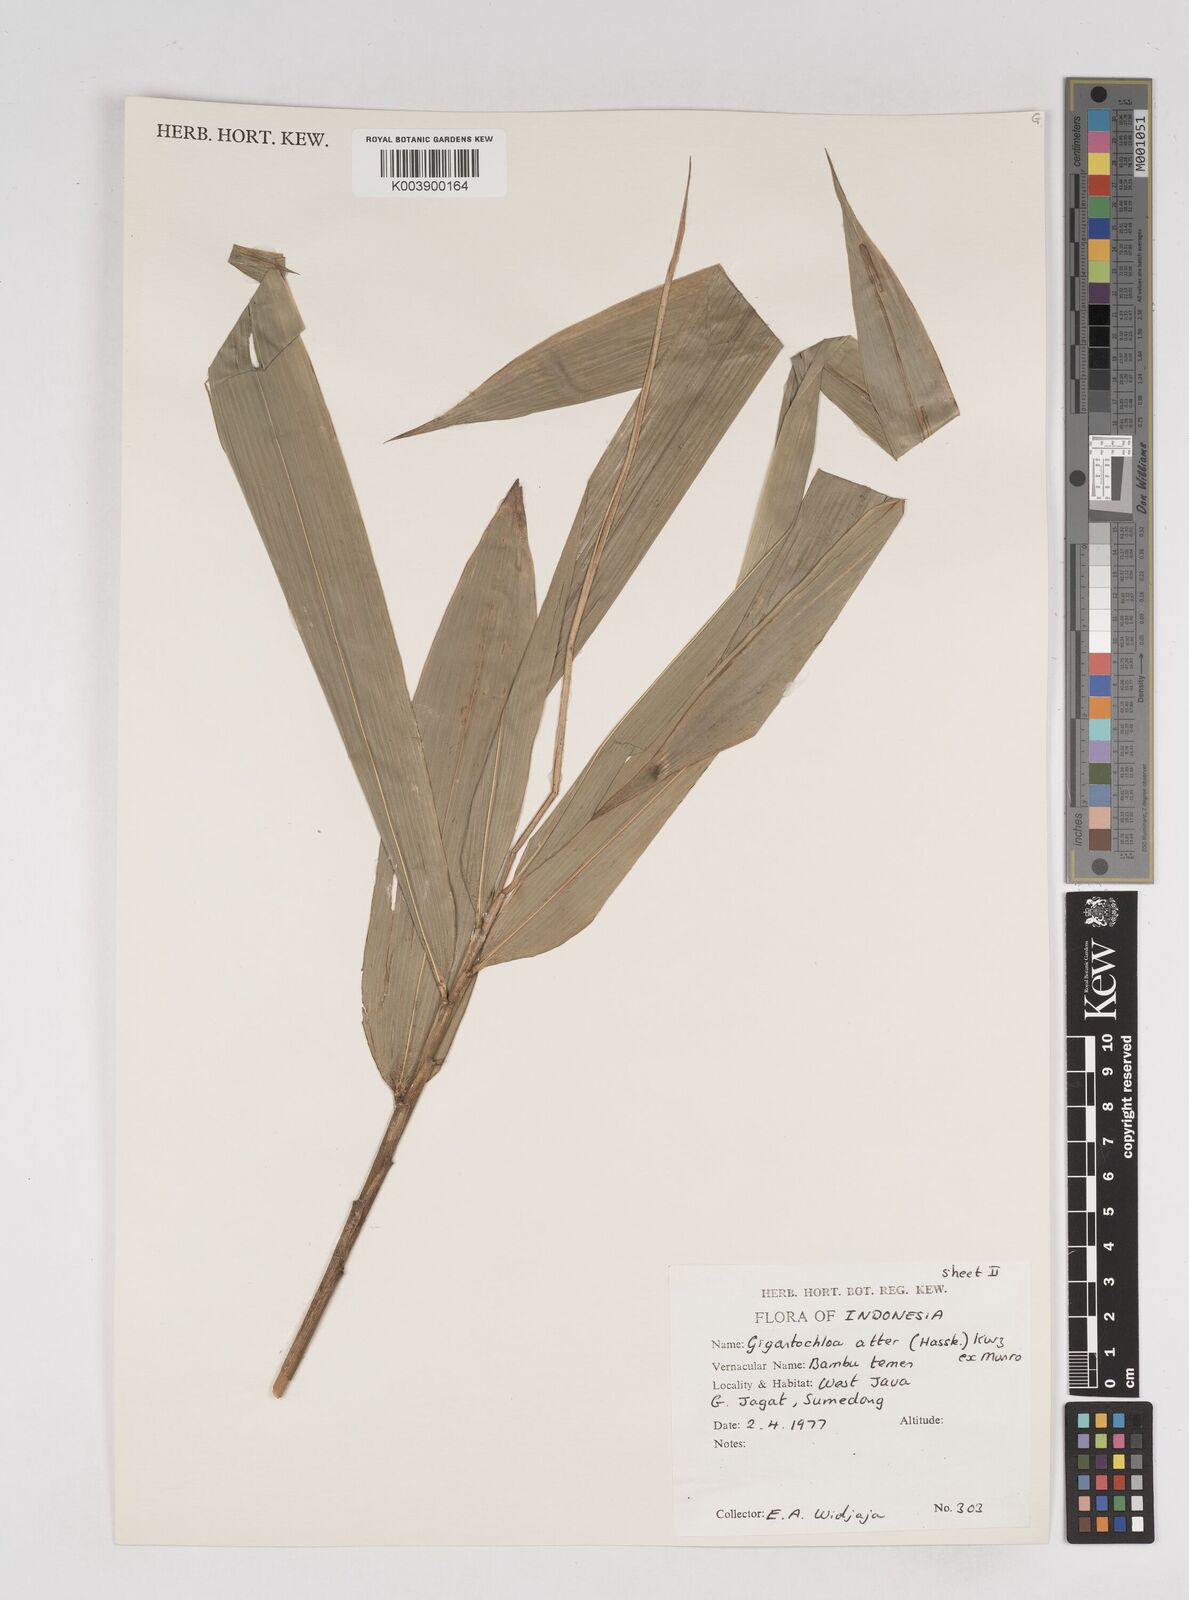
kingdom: Plantae
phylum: Tracheophyta
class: Liliopsida
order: Poales
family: Poaceae
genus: Gigantochloa
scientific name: Gigantochloa atter
